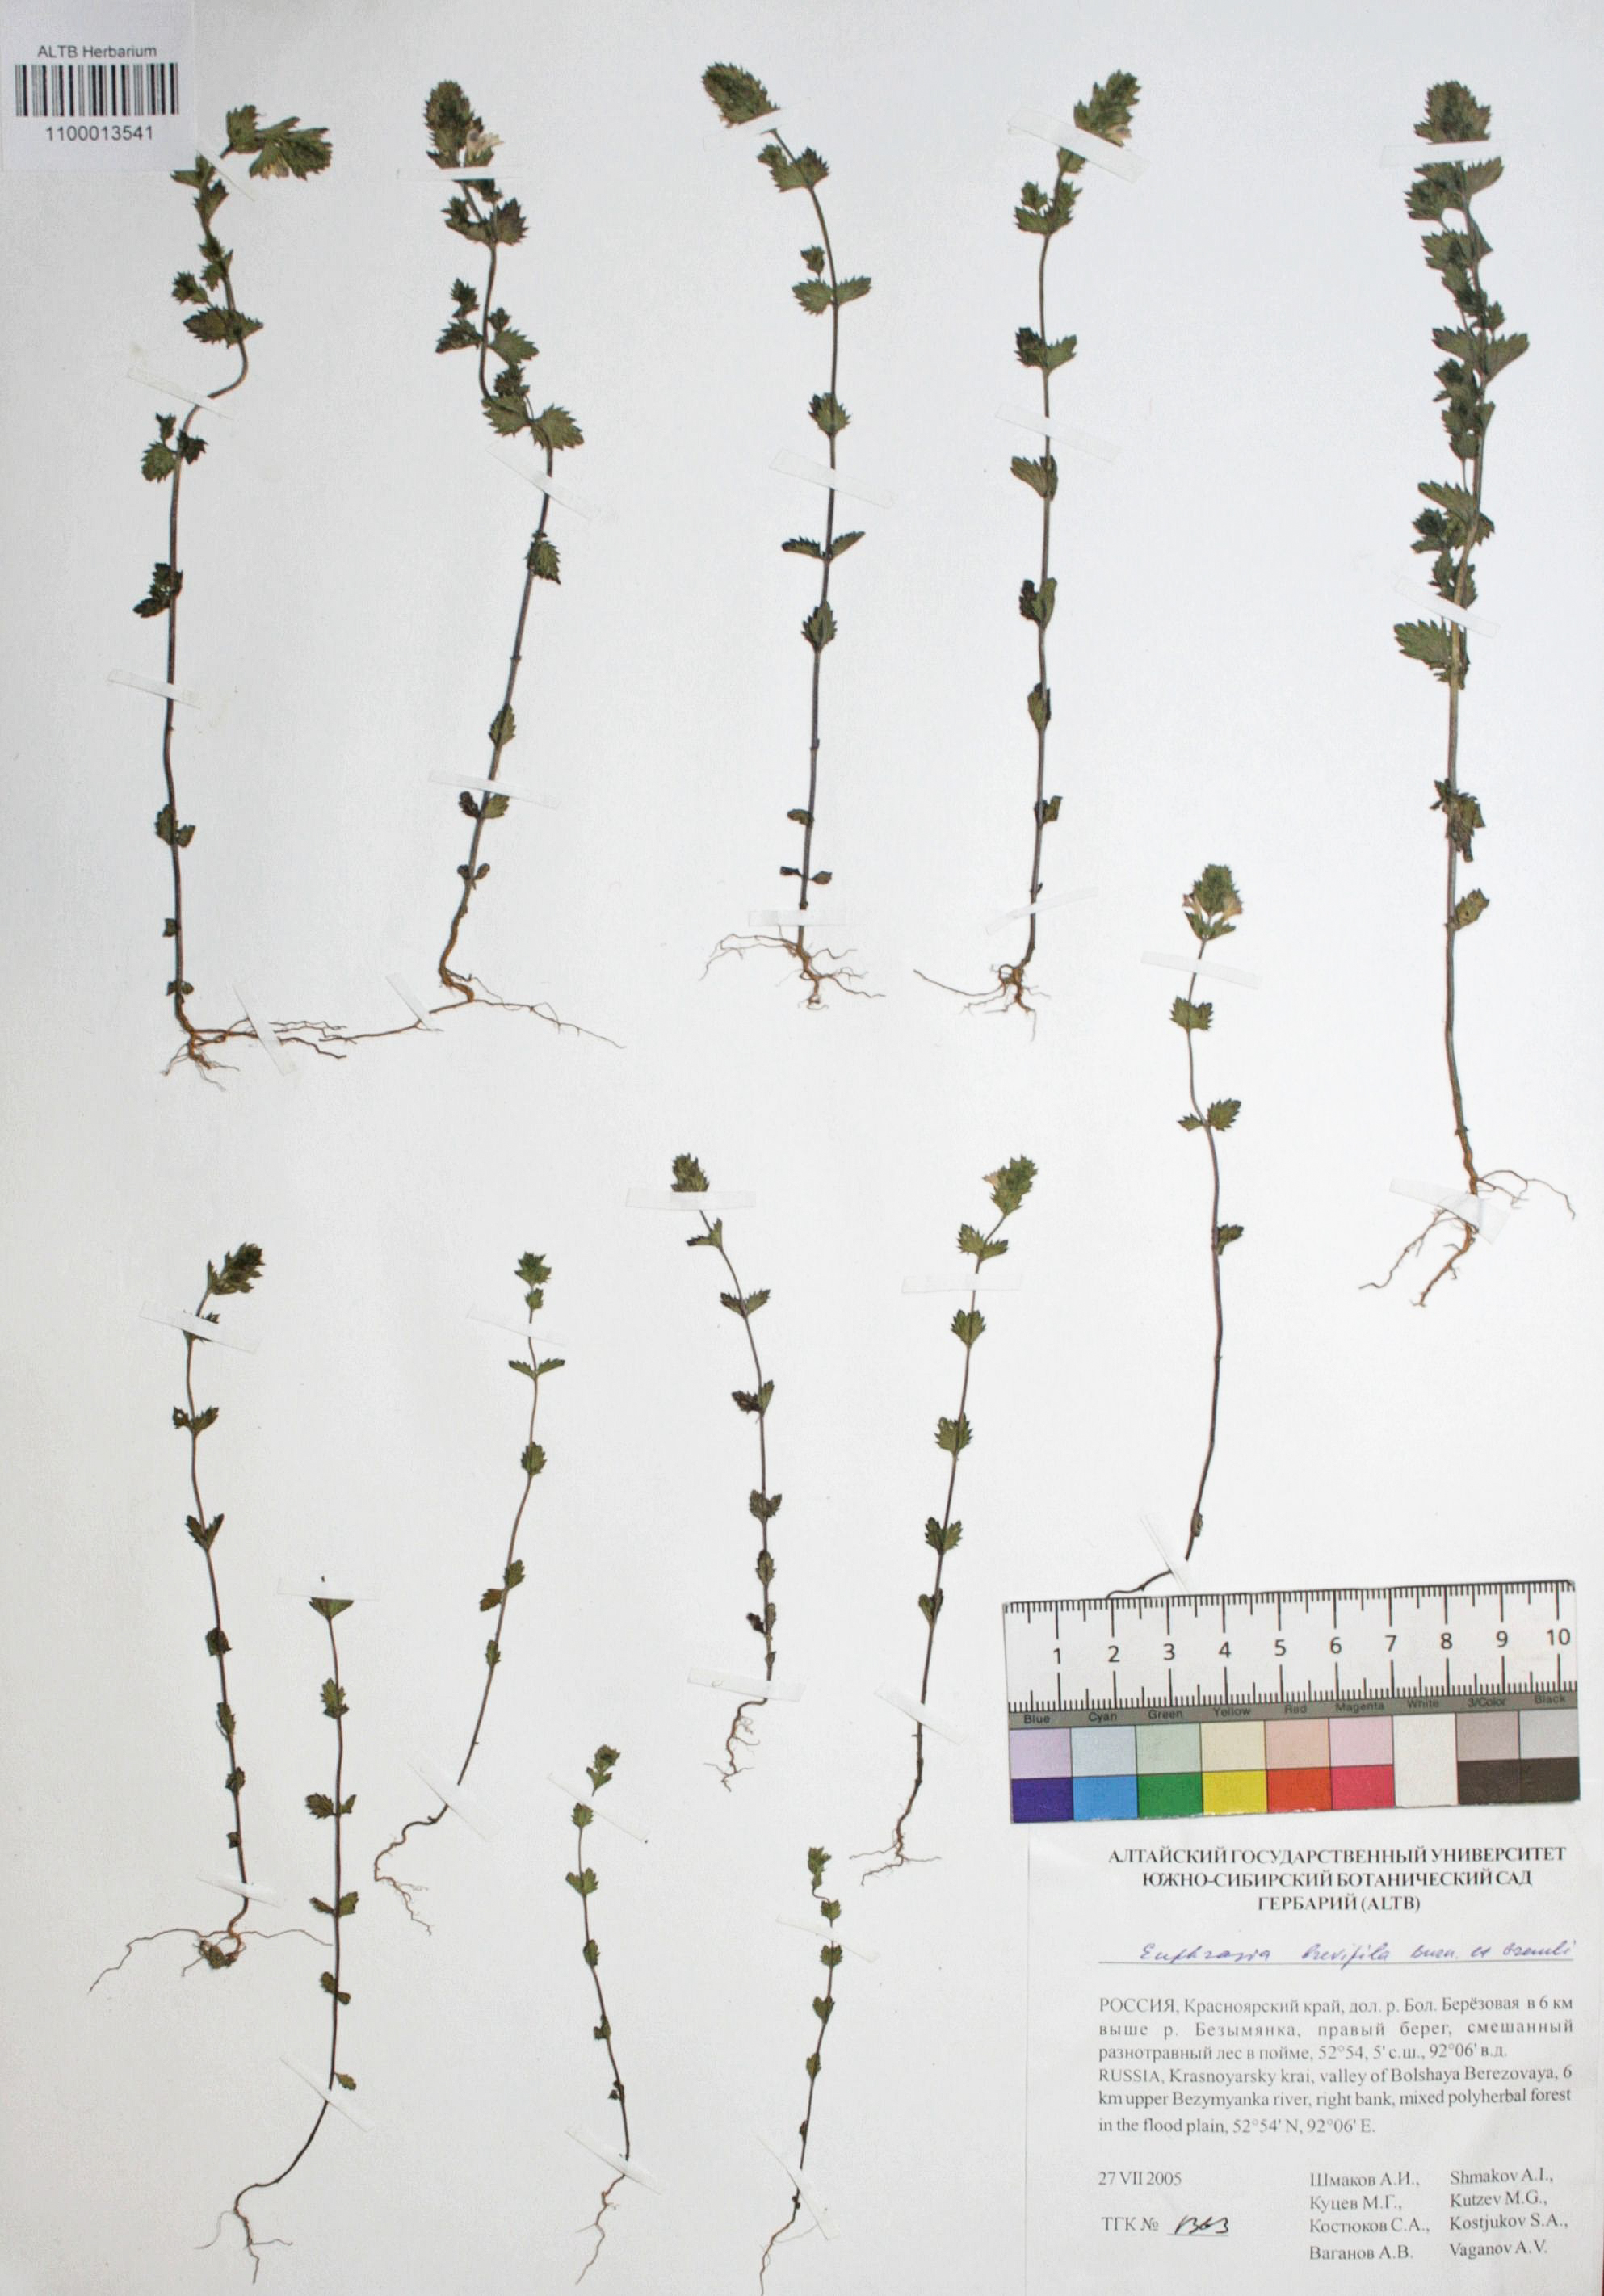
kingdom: Plantae
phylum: Tracheophyta
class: Magnoliopsida
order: Lamiales
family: Orobanchaceae
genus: Euphrasia
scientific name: Euphrasia vernalis
